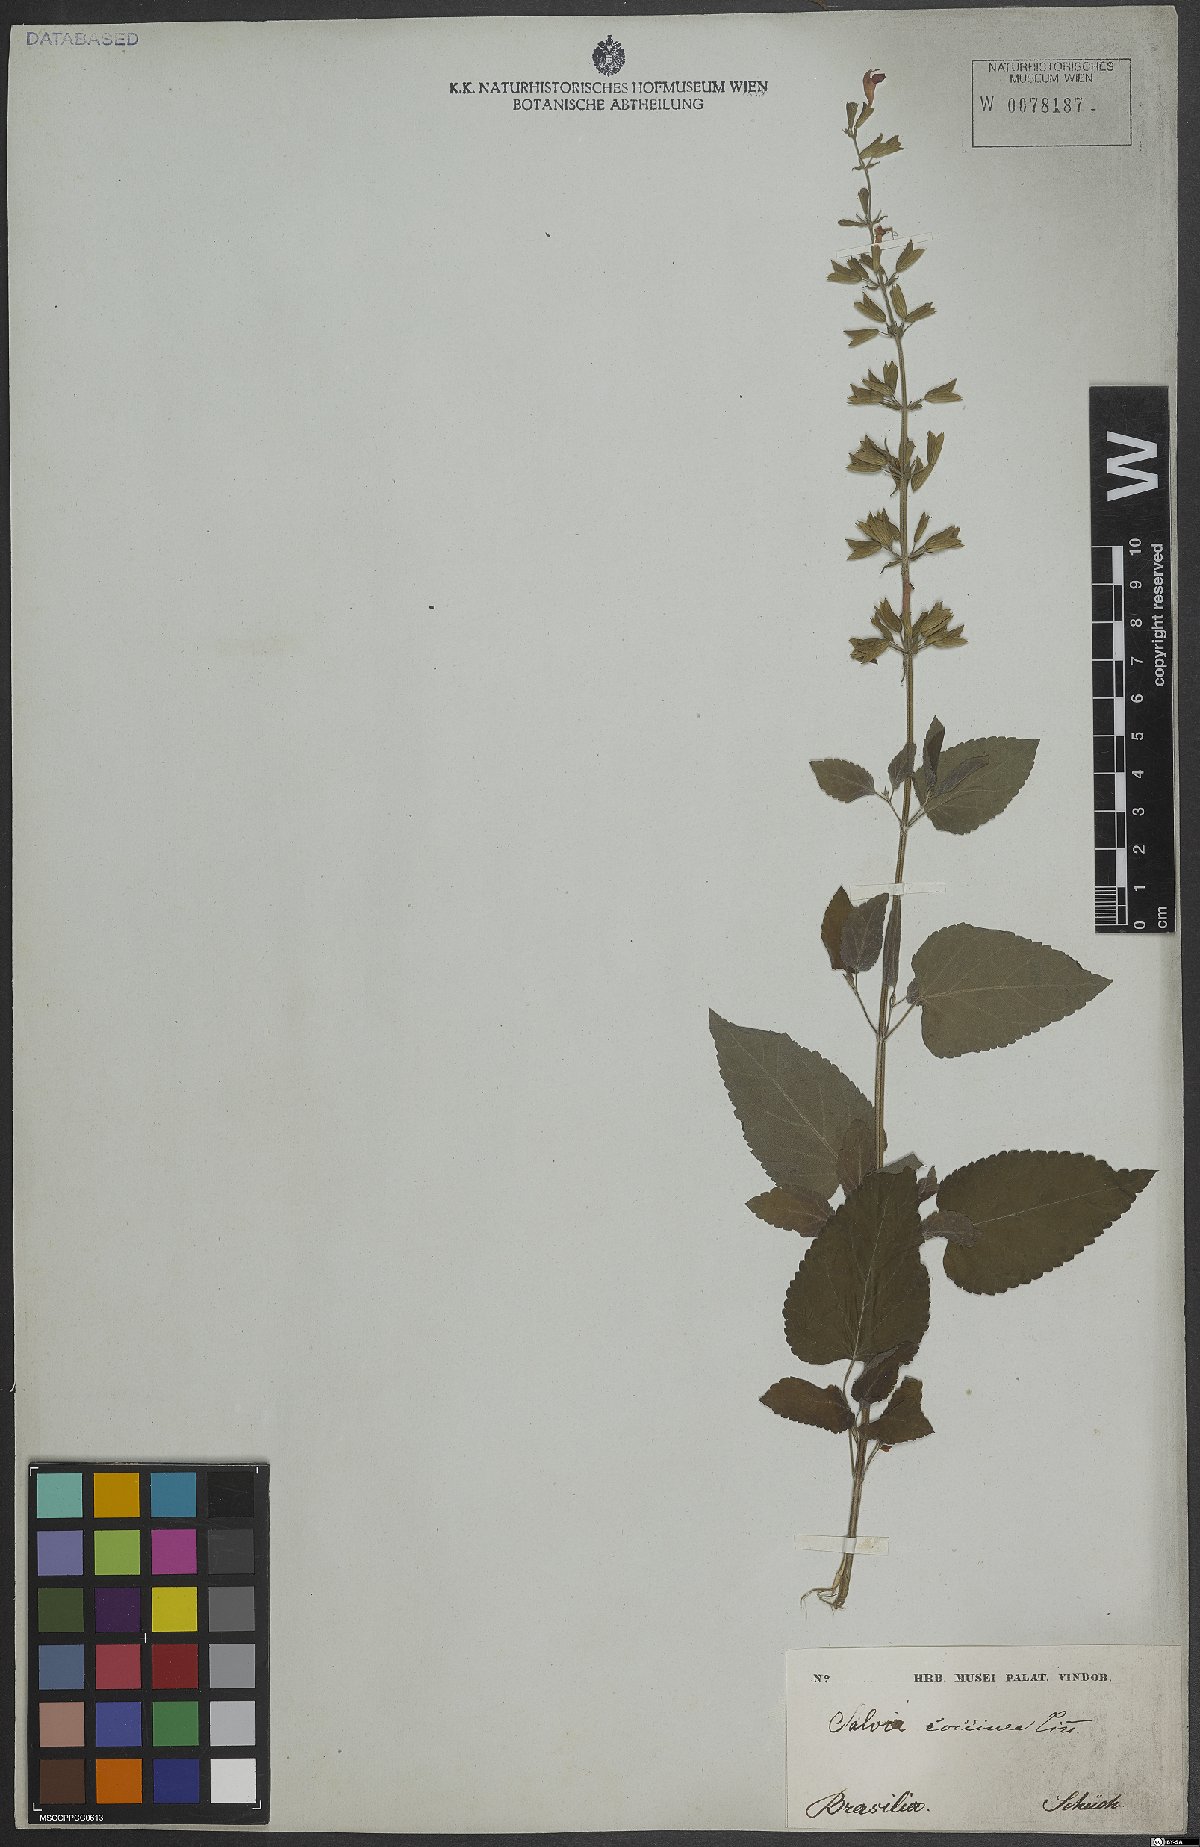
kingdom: Plantae
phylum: Tracheophyta
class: Magnoliopsida
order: Lamiales
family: Lamiaceae
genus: Salvia
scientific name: Salvia coccinea
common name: Blood sage
